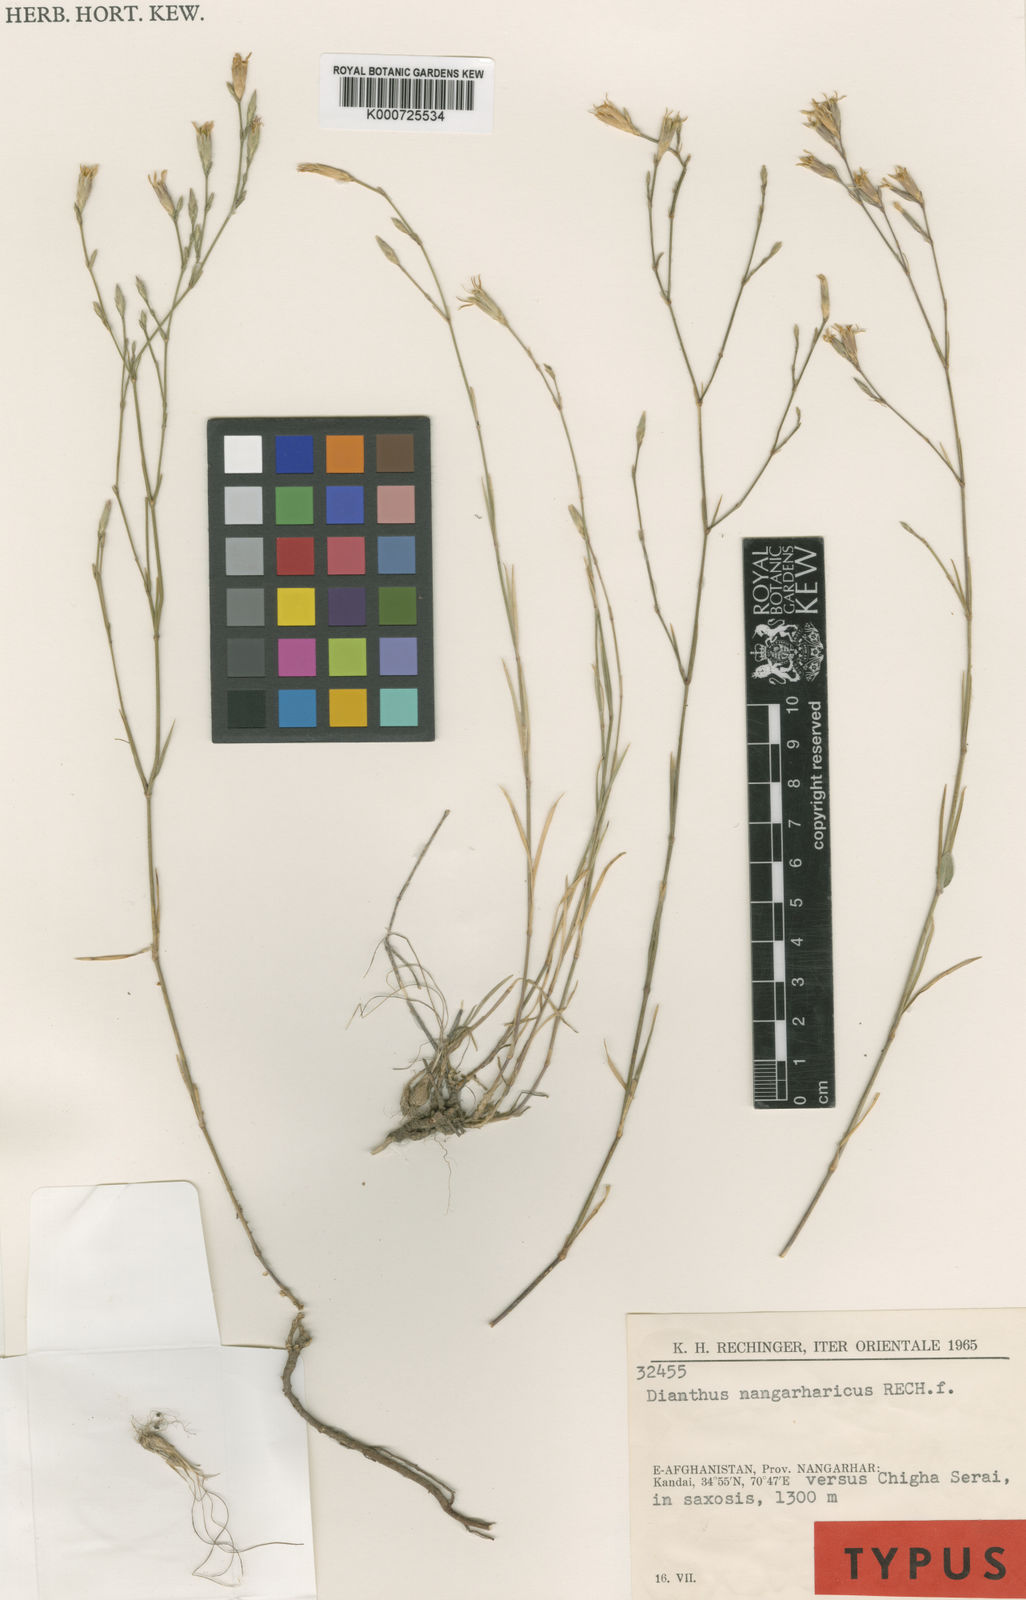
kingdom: Plantae
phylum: Tracheophyta
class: Magnoliopsida
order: Caryophyllales
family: Caryophyllaceae
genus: Dianthus
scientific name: Dianthus nangarharicus
